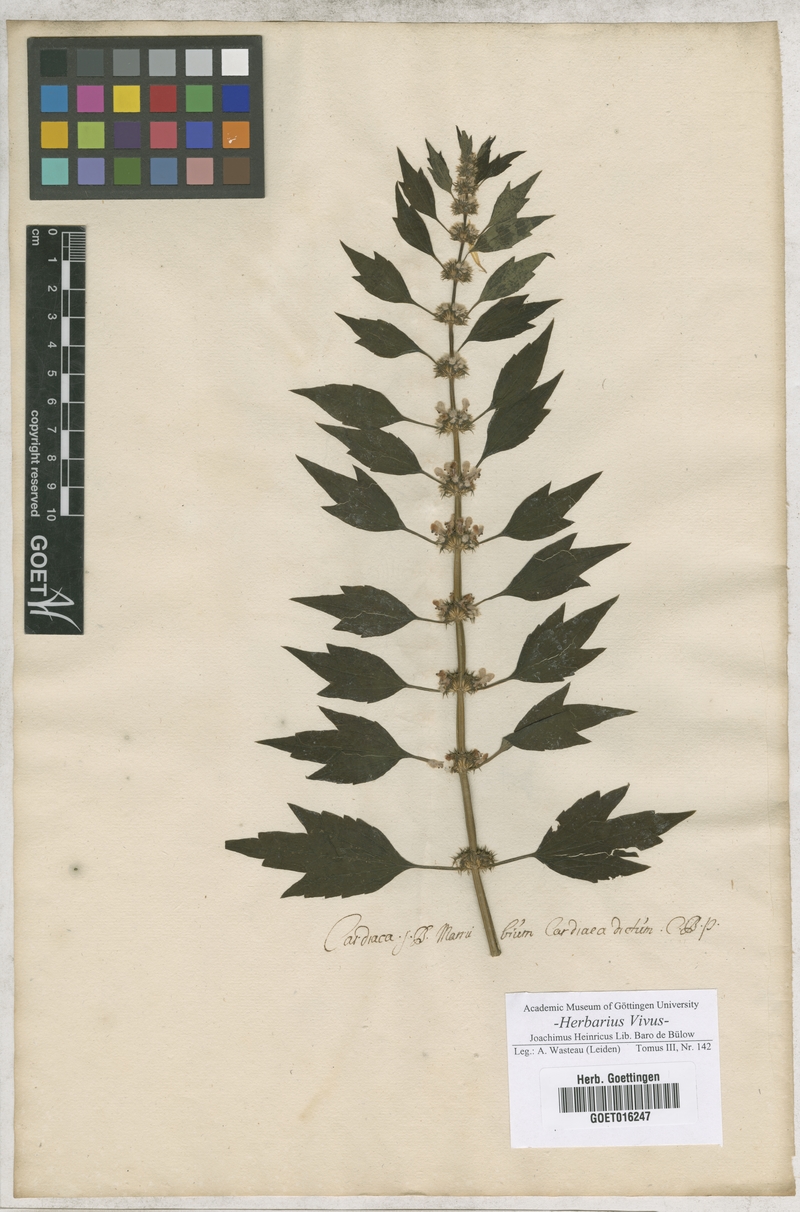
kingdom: Plantae
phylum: Tracheophyta
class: Magnoliopsida
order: Lamiales
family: Lamiaceae
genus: Leonurus
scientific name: Leonurus cardiaca
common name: Motherwort
